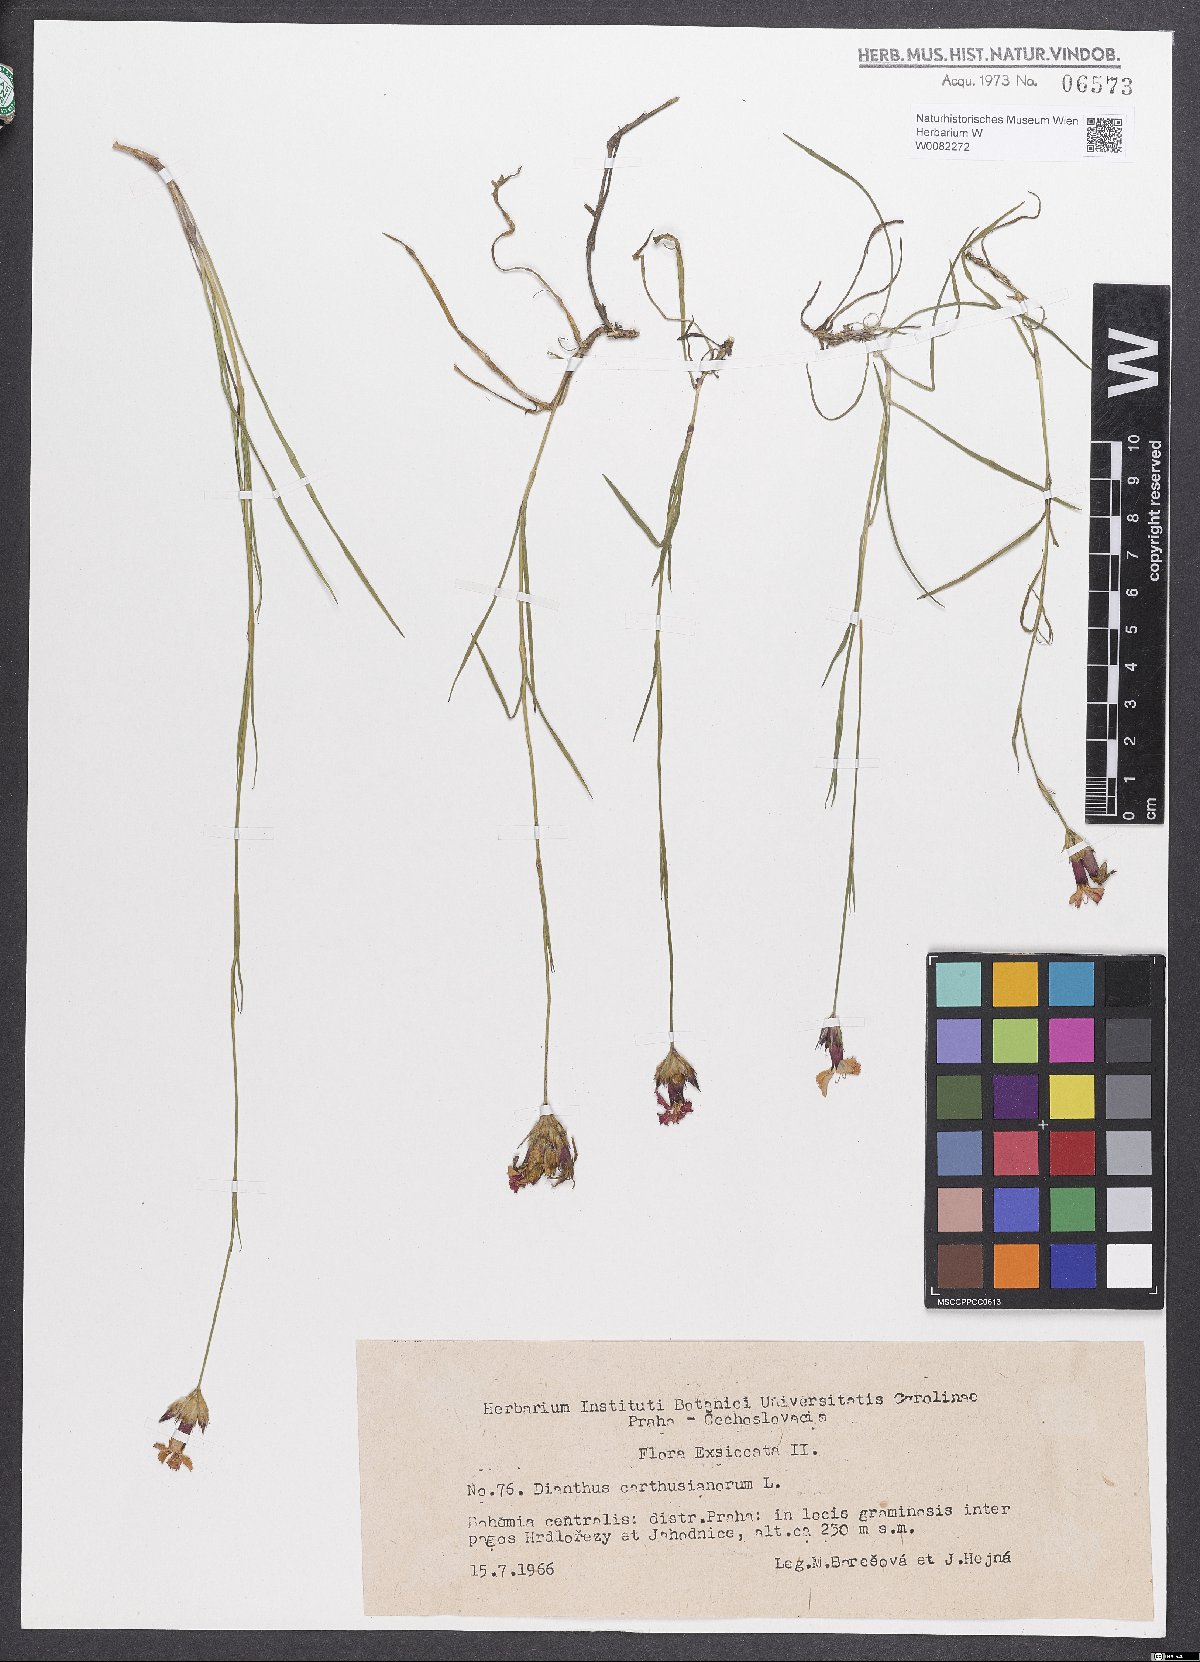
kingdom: Plantae
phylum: Tracheophyta
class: Magnoliopsida
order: Caryophyllales
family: Caryophyllaceae
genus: Dianthus
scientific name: Dianthus carthusianorum
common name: Carthusian pink
